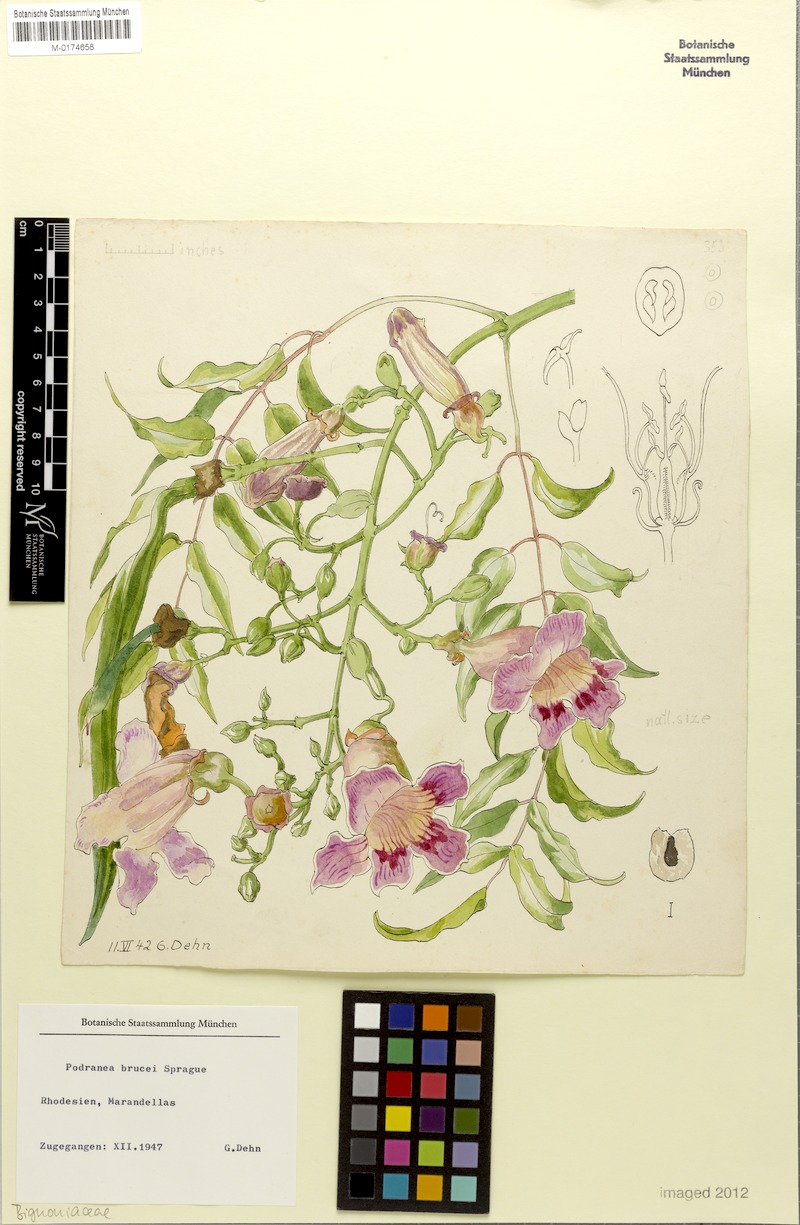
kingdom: Plantae
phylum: Tracheophyta
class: Magnoliopsida
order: Lamiales
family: Bignoniaceae
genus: Podranea
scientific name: Podranea brycei
